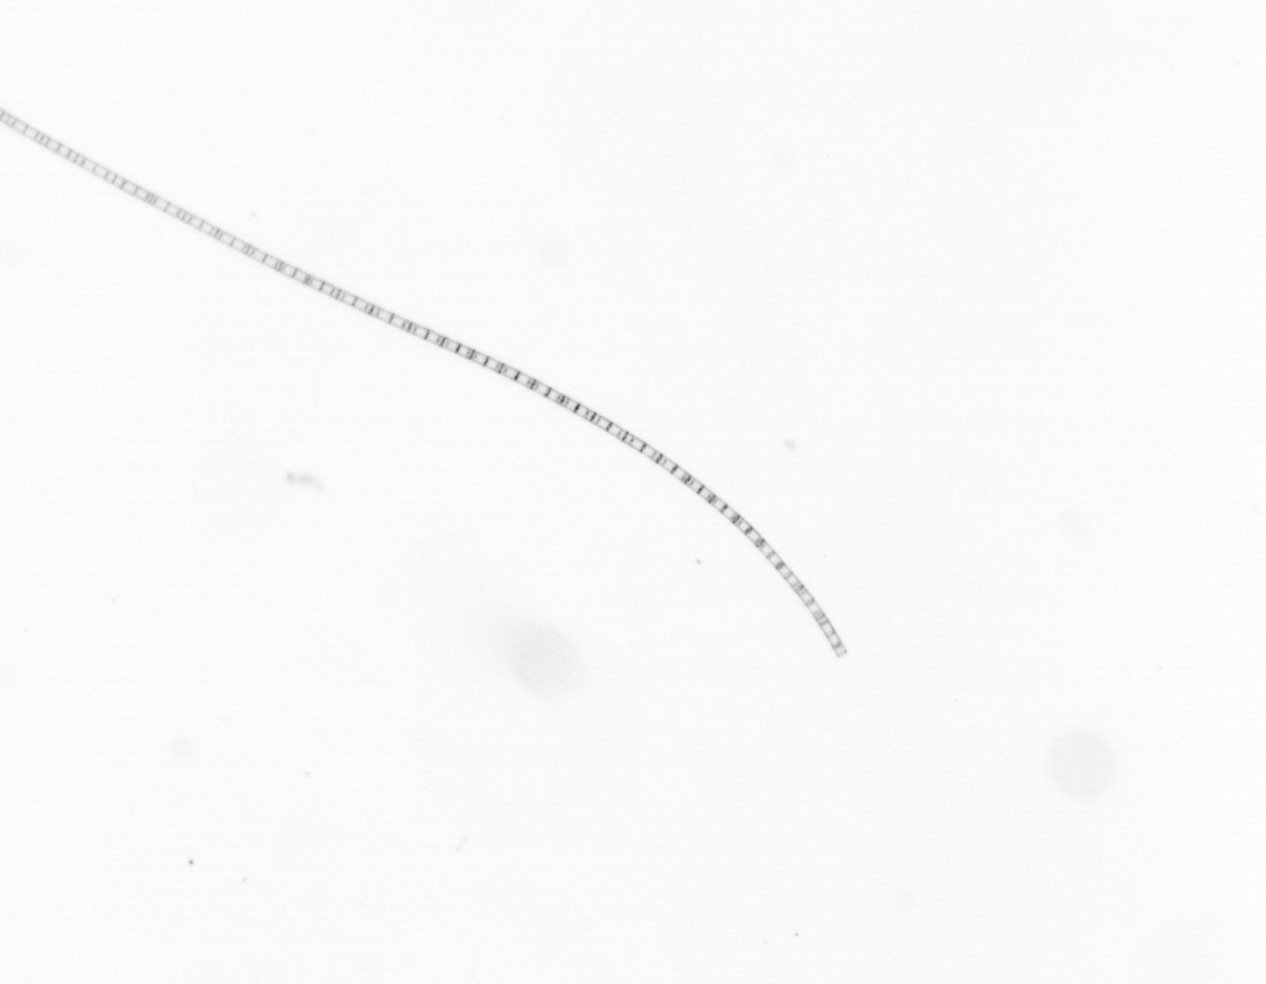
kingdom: Chromista
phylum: Ochrophyta
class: Bacillariophyceae
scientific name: Bacillariophyceae
